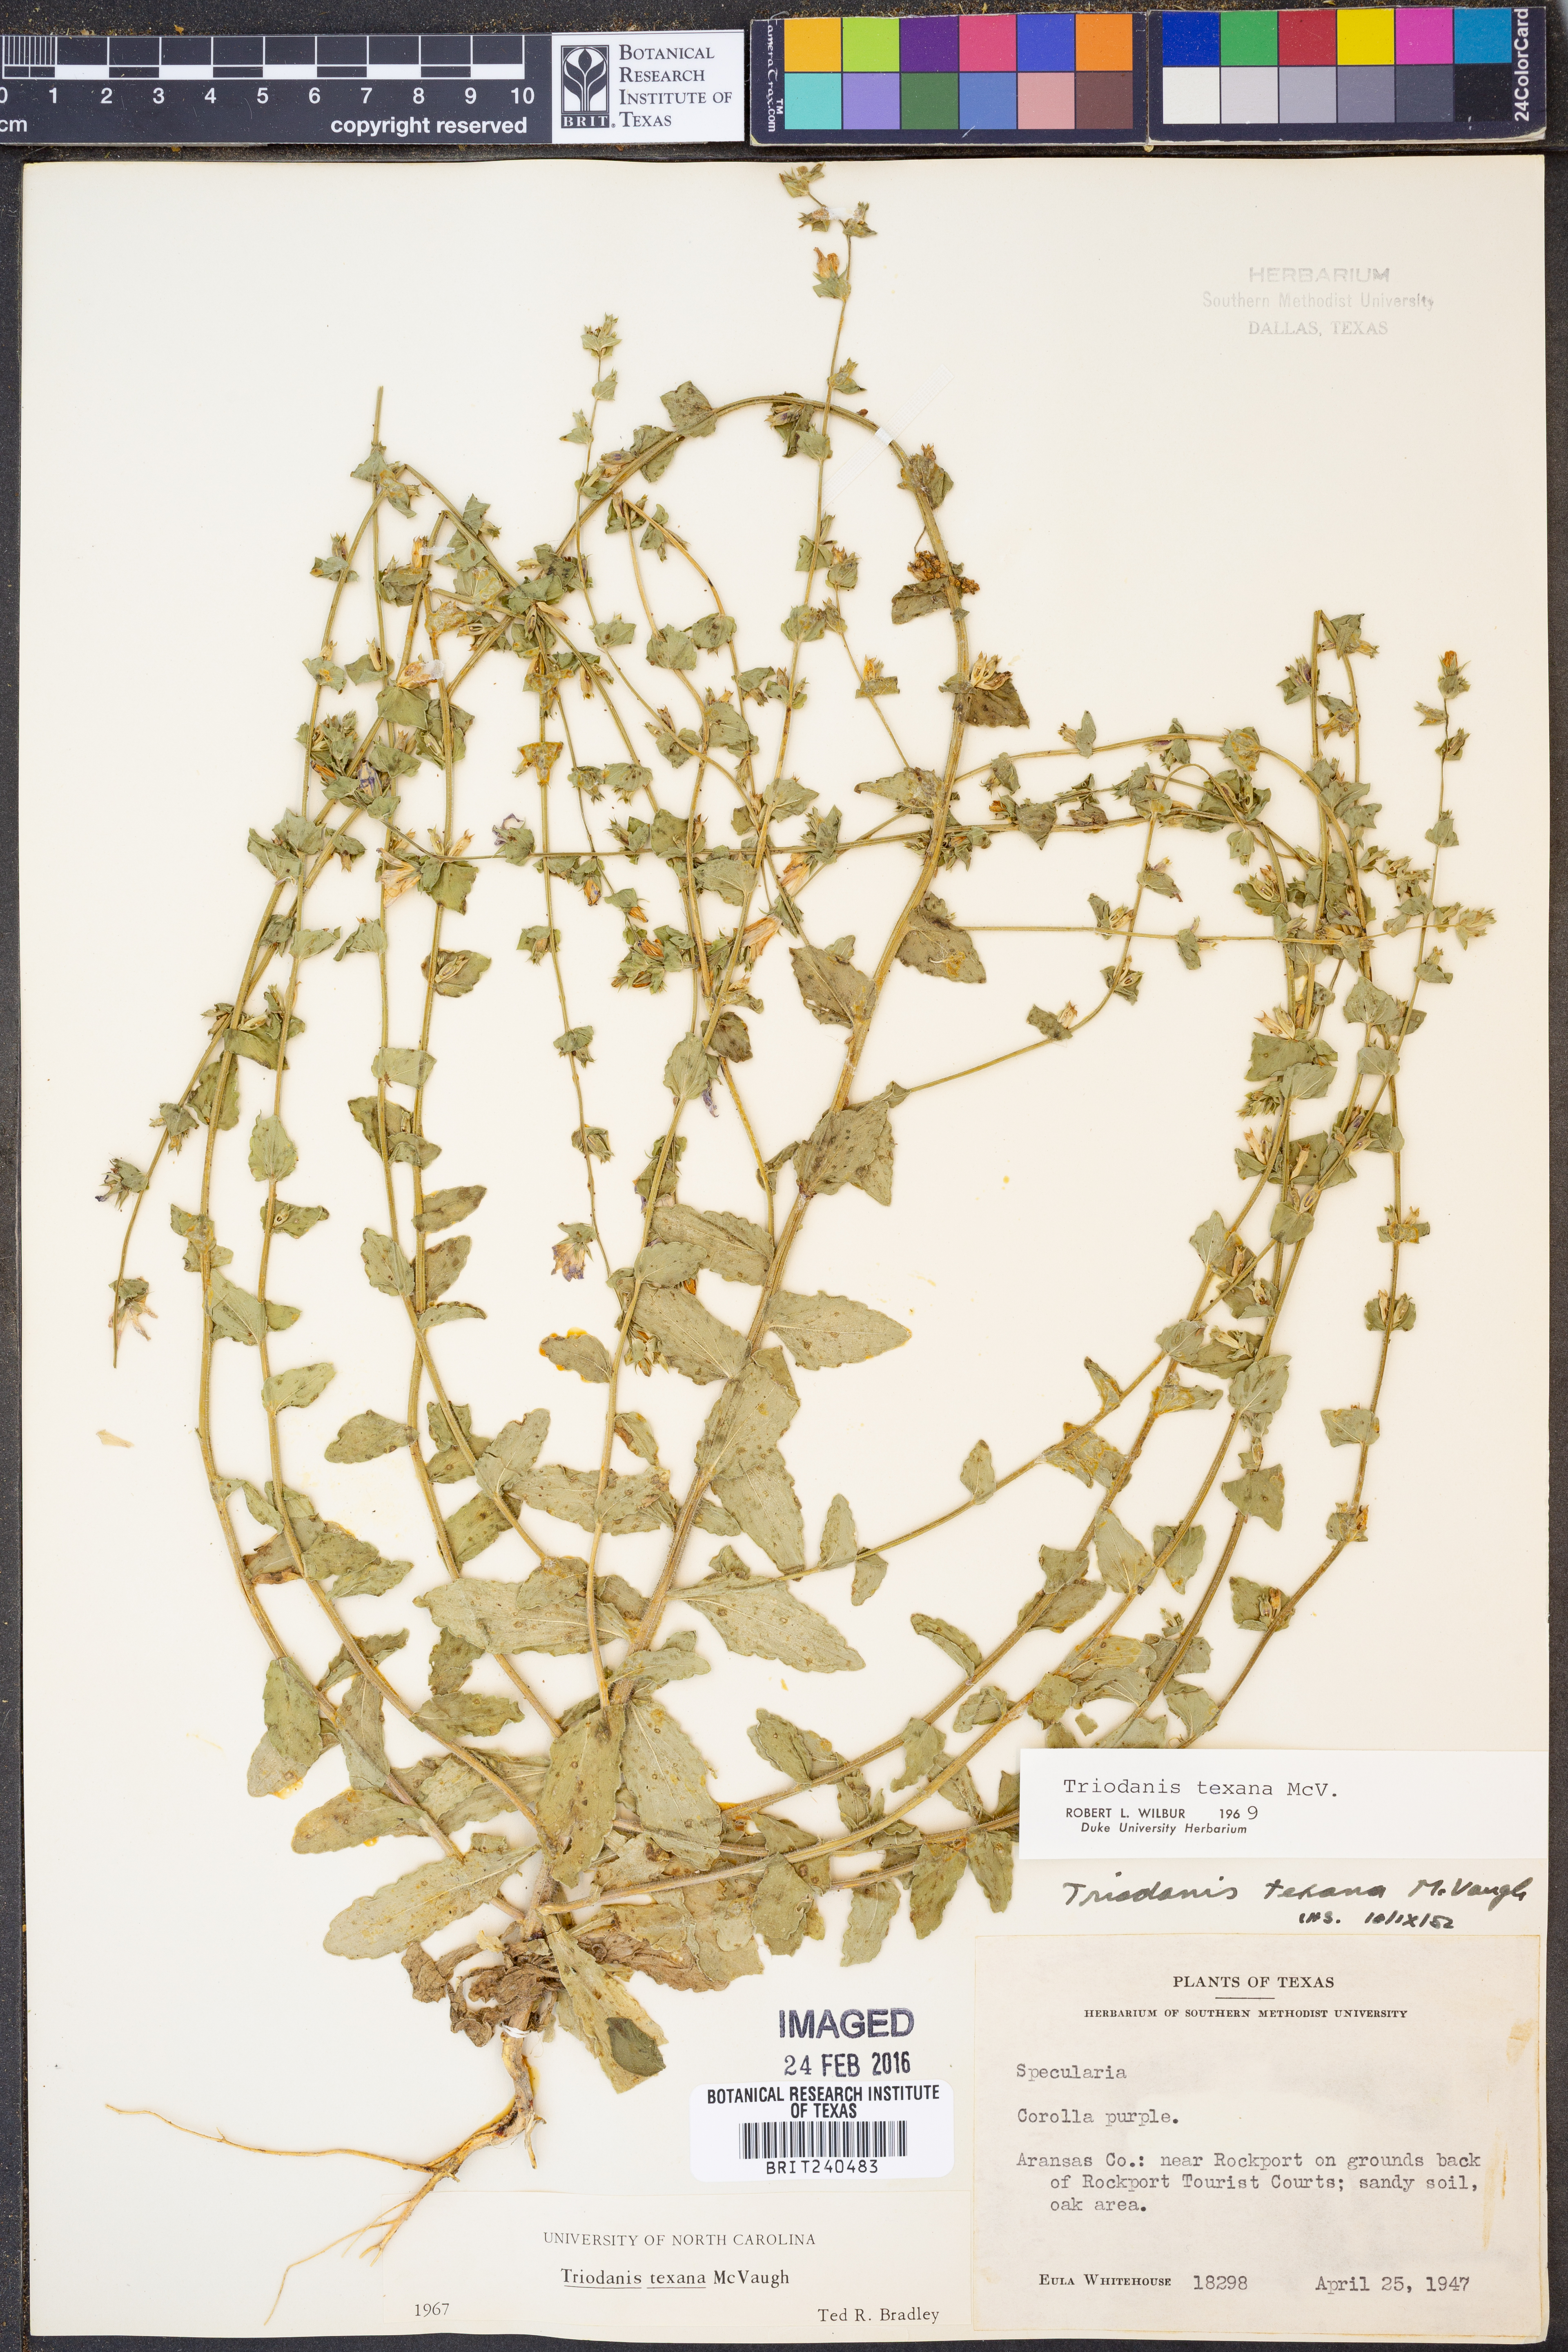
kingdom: Plantae
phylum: Tracheophyta
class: Magnoliopsida
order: Asterales
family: Campanulaceae
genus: Triodanis
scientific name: Triodanis texana
